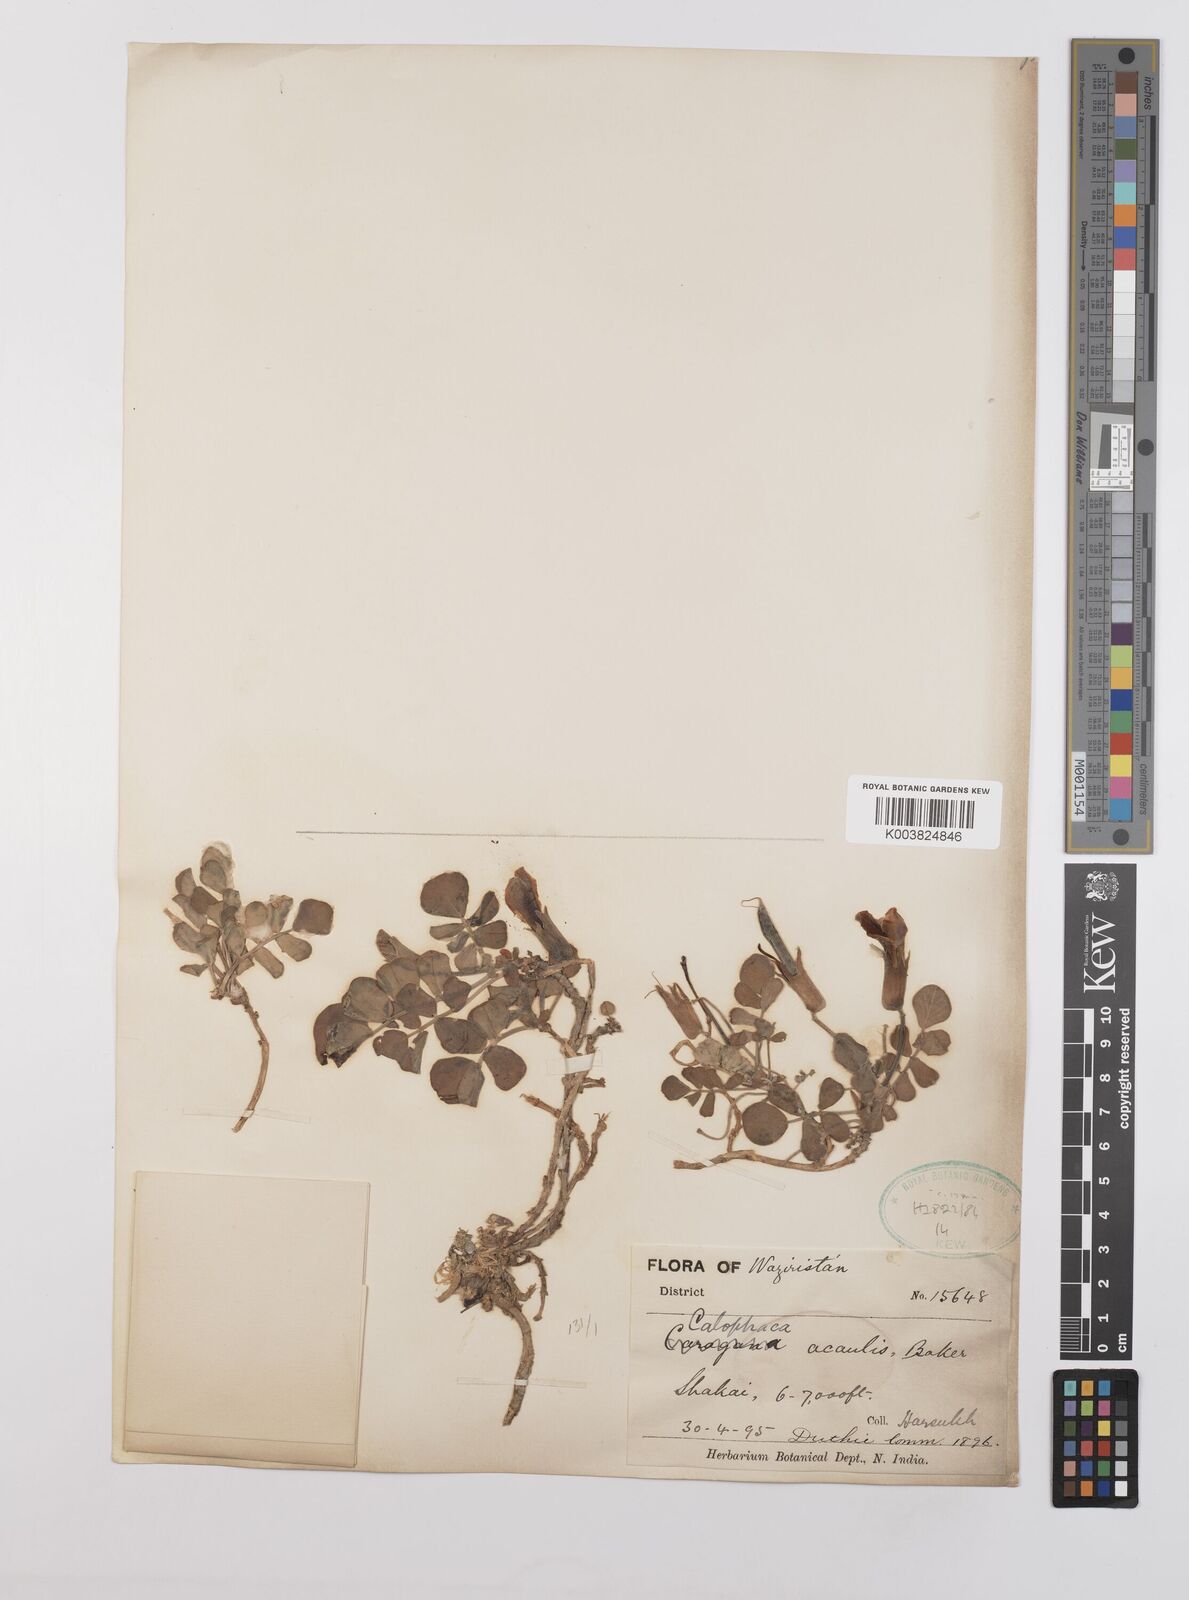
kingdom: Plantae
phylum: Tracheophyta
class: Magnoliopsida
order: Fabales
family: Fabaceae
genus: Chesneya
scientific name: Chesneya acaulis
